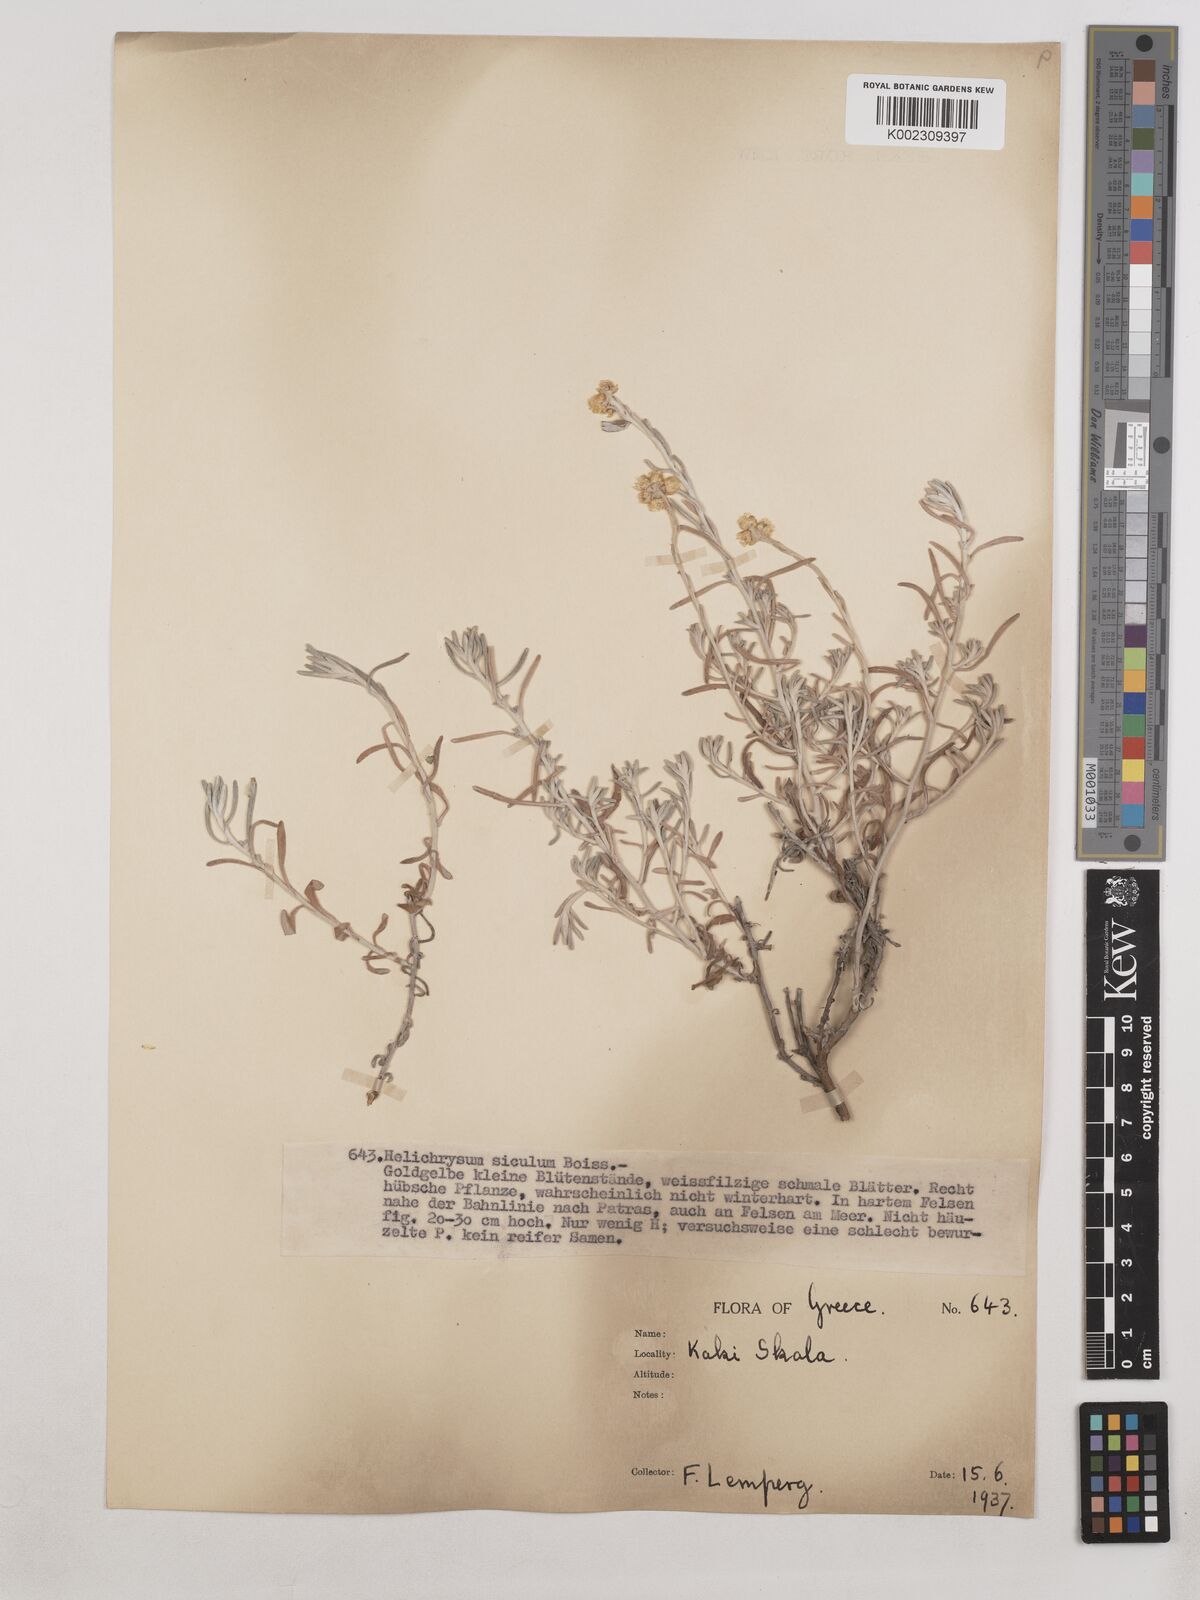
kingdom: Plantae
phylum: Tracheophyta
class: Magnoliopsida
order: Asterales
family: Asteraceae
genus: Helichrysum
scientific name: Helichrysum stoechas
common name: Goldilocks
